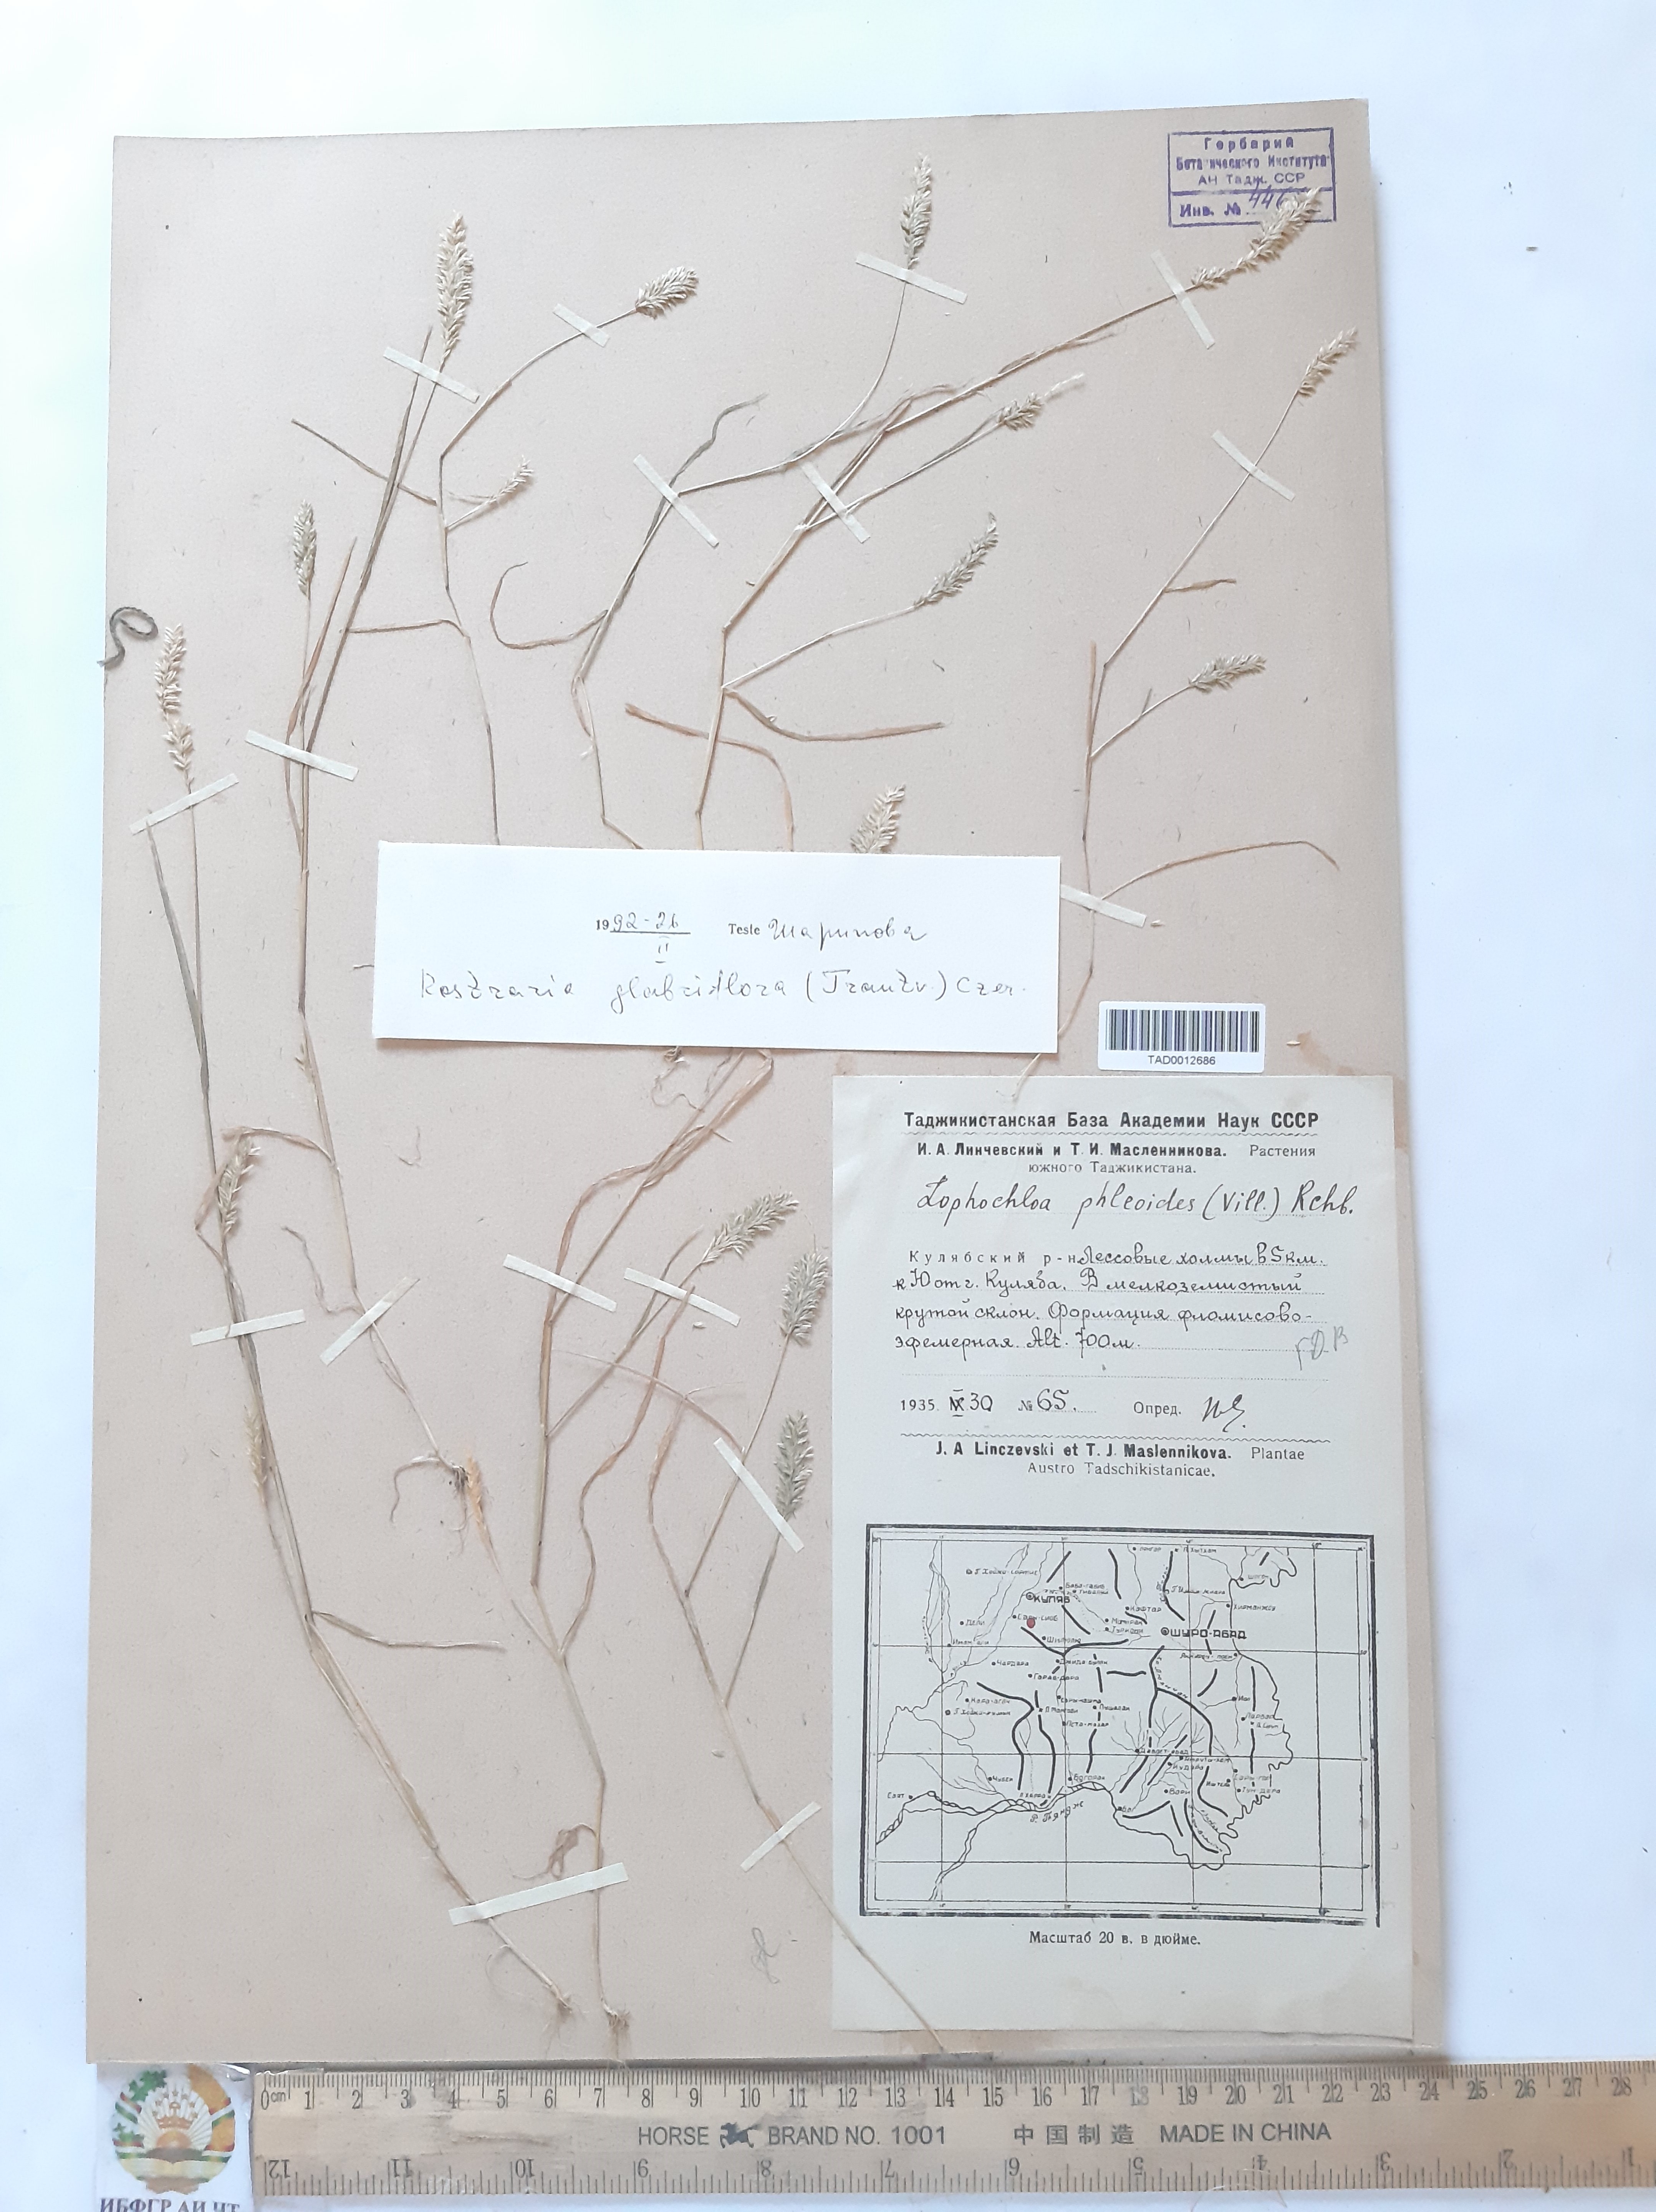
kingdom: Plantae
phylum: Tracheophyta
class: Liliopsida
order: Poales
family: Poaceae
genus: Rostraria
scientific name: Rostraria cristata
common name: Mediterranean hair-grass
